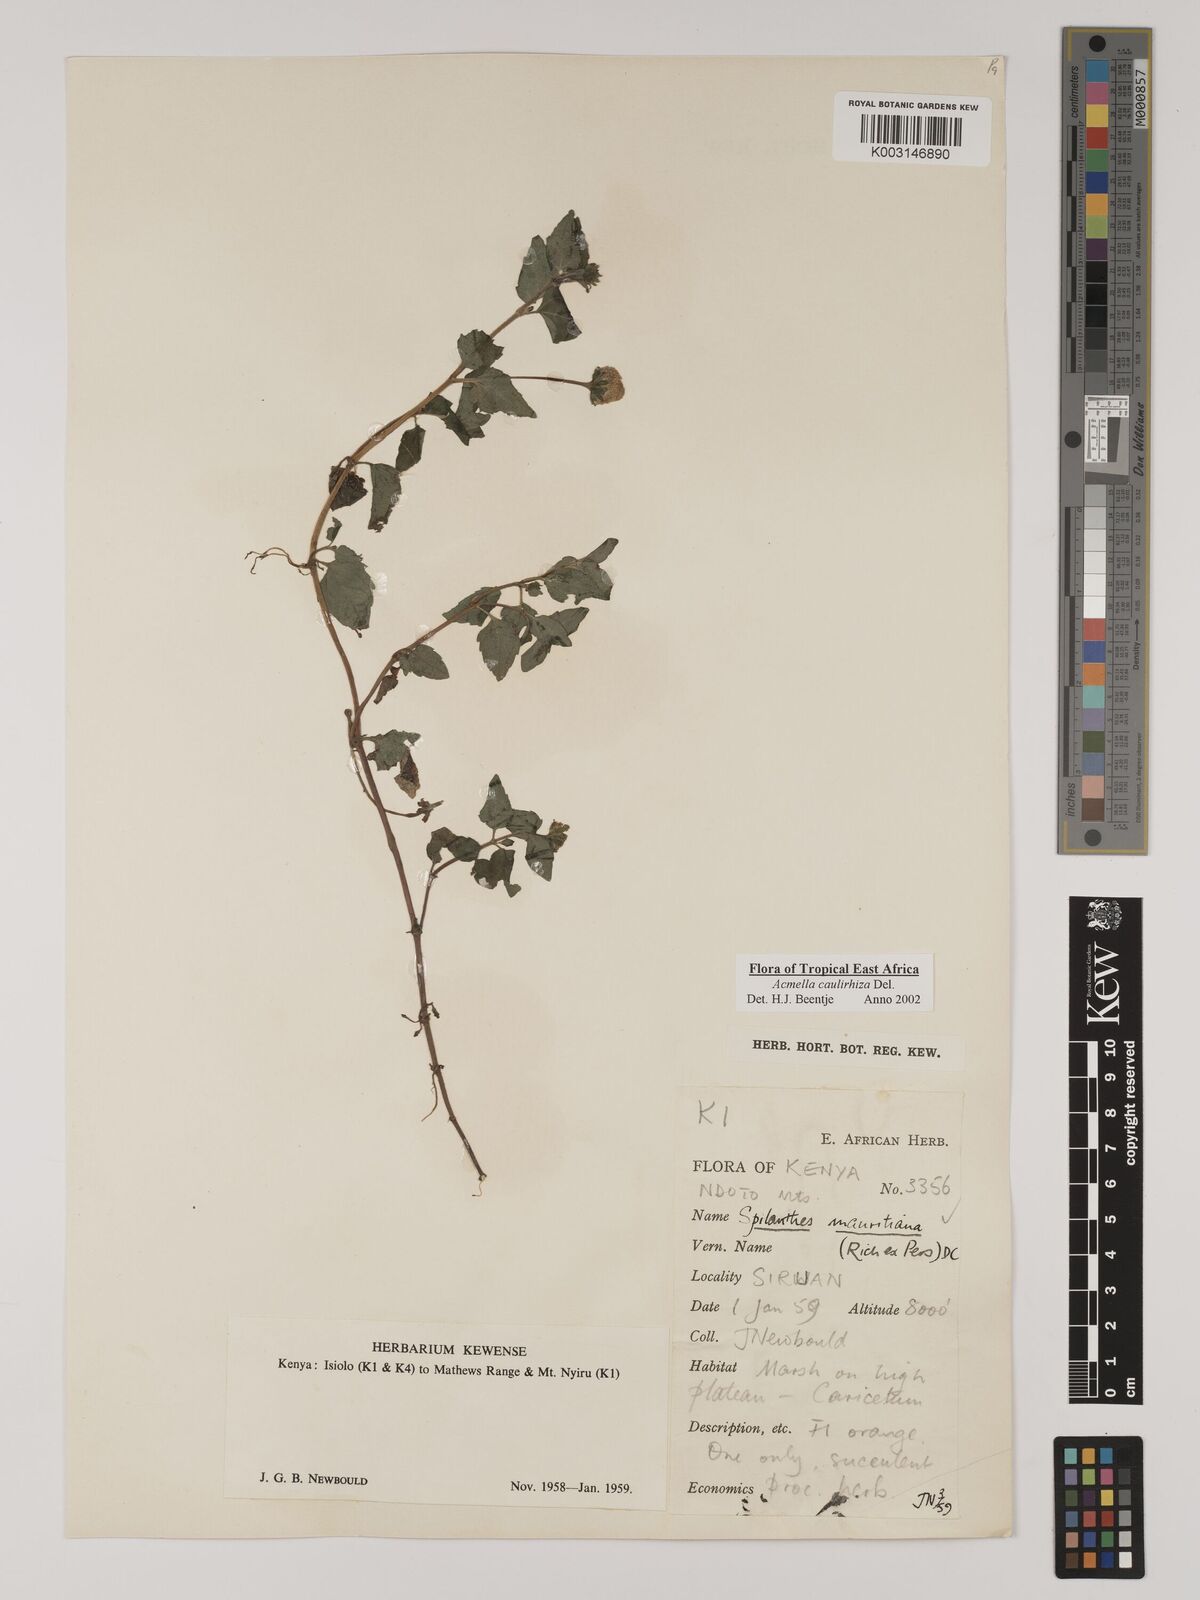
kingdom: Plantae
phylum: Tracheophyta
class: Magnoliopsida
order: Asterales
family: Asteraceae
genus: Acmella
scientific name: Acmella caulirhiza
